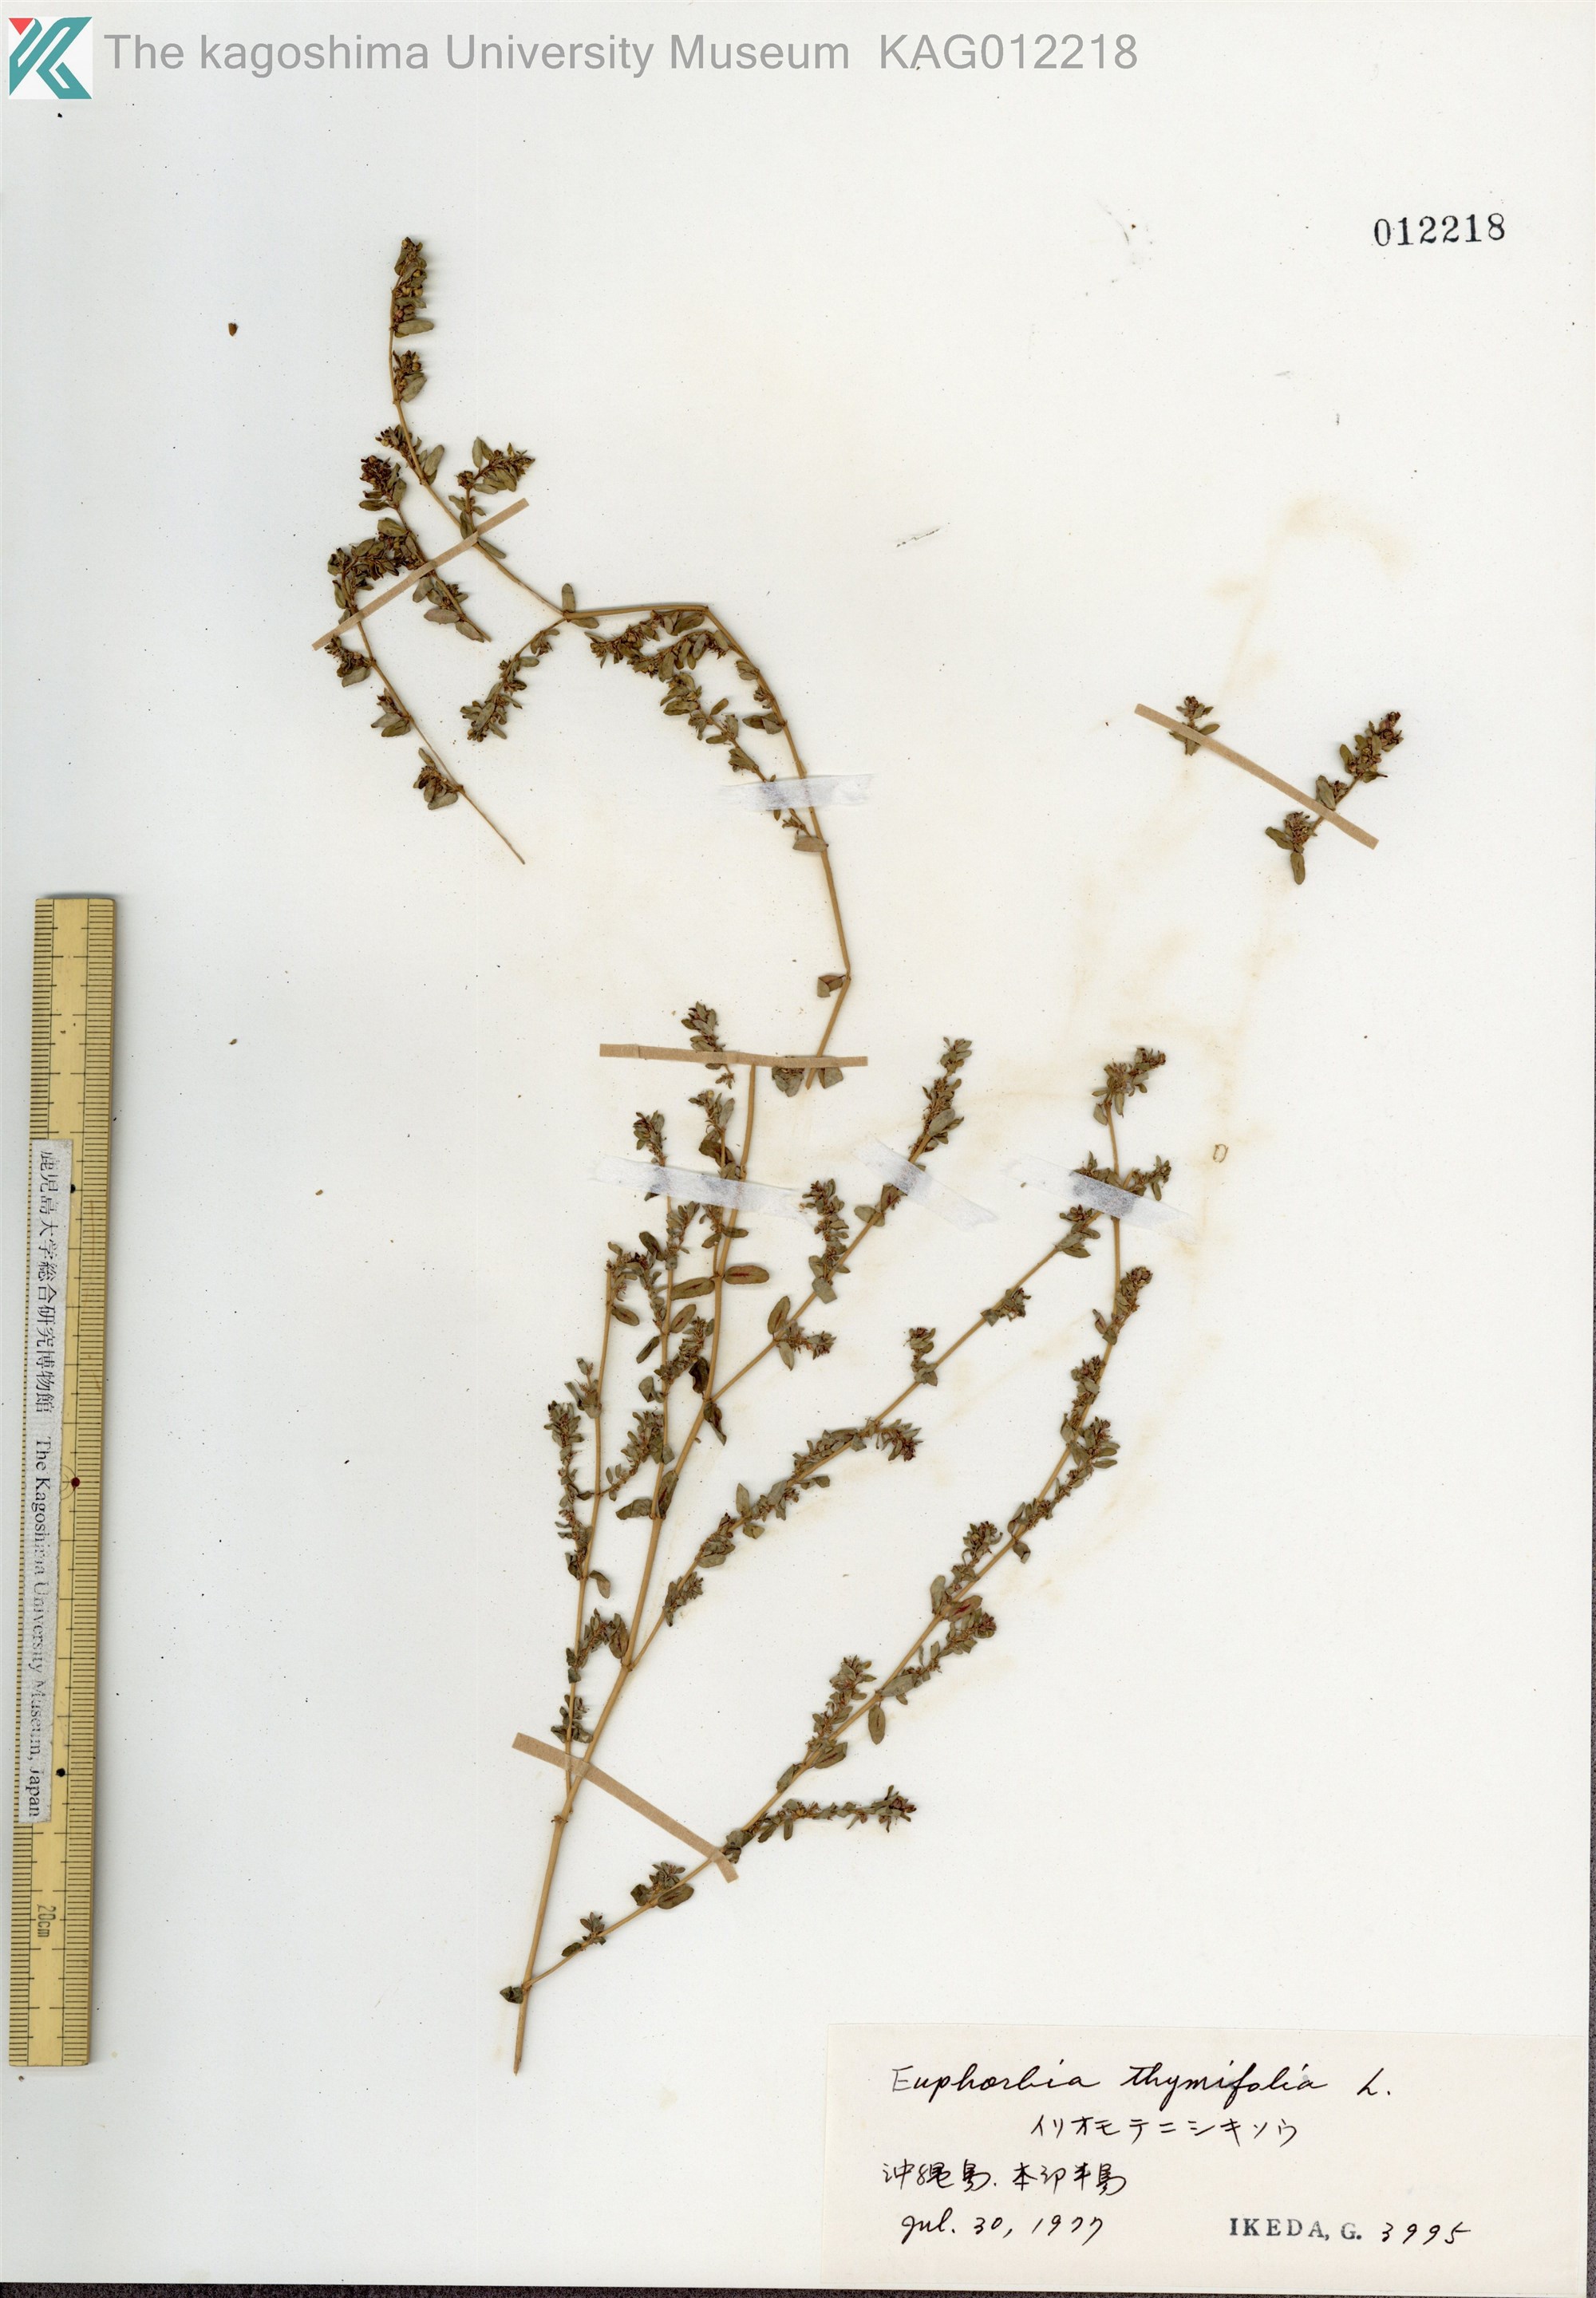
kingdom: Plantae
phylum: Tracheophyta
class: Magnoliopsida
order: Malpighiales
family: Euphorbiaceae
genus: Euphorbia
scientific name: Euphorbia thymifolia
